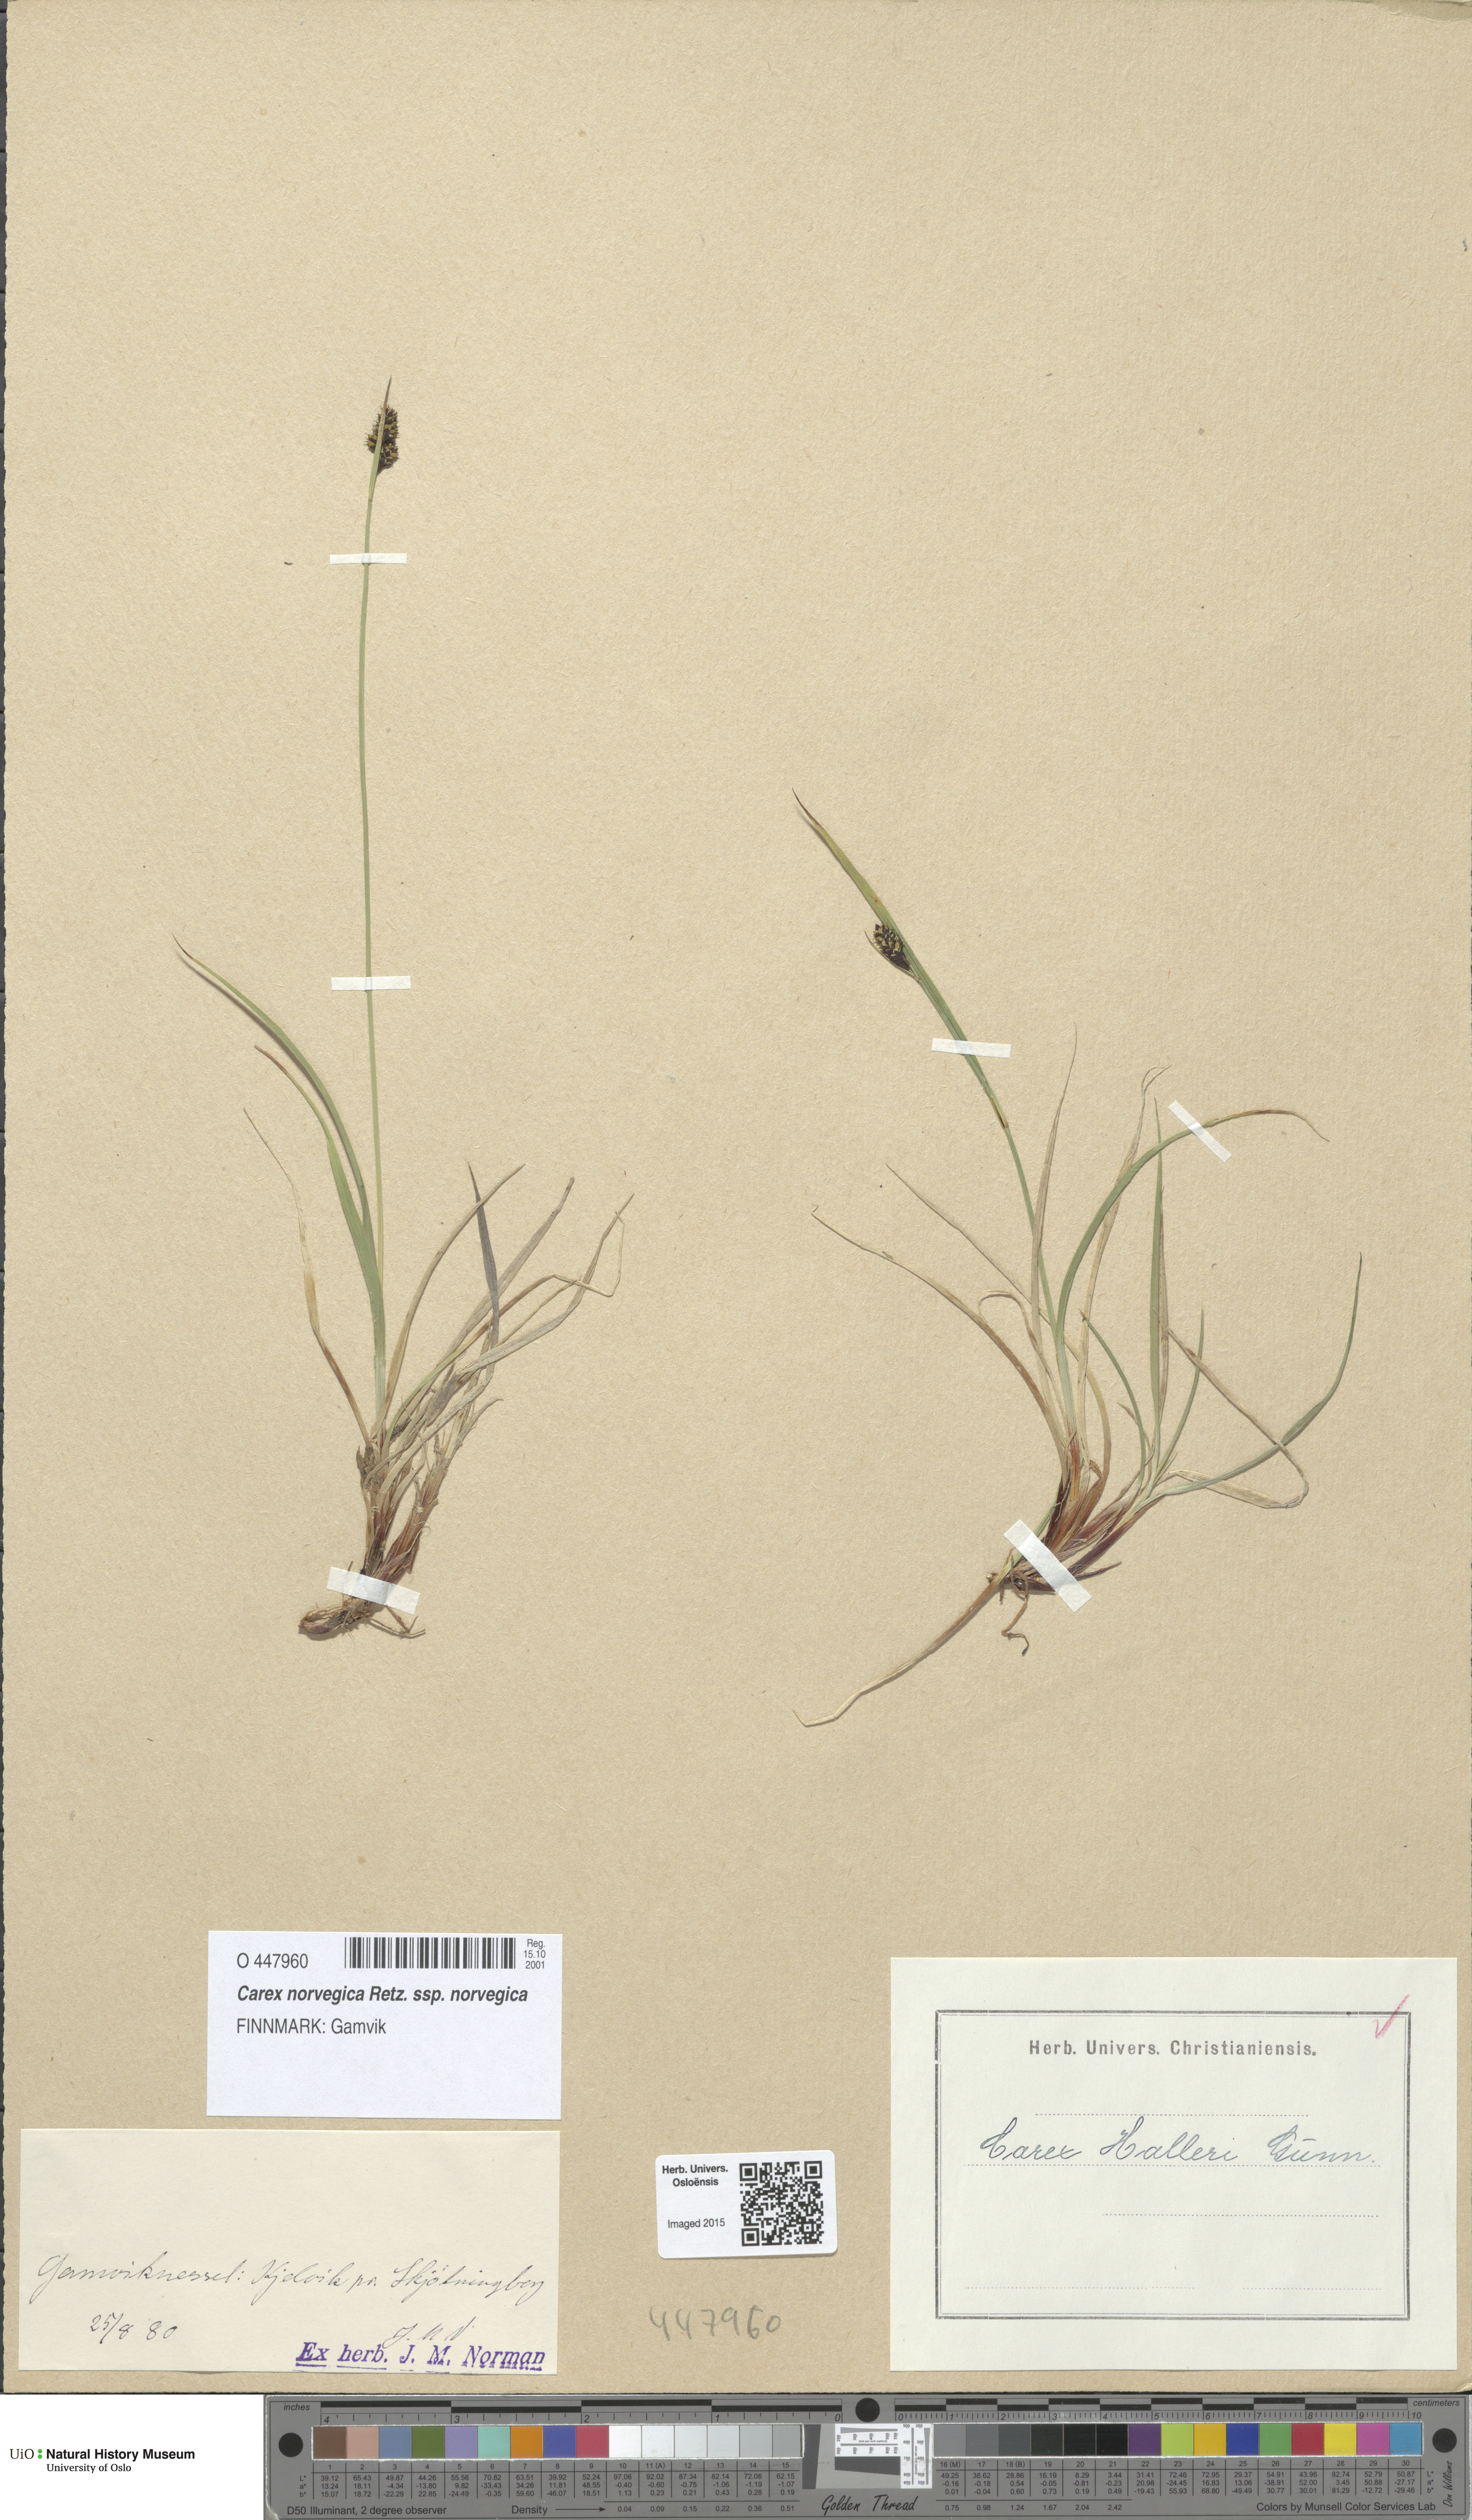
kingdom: Plantae
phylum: Tracheophyta
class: Liliopsida
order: Poales
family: Cyperaceae
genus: Carex
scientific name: Carex norvegica
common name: Close-headed alpine-sedge
